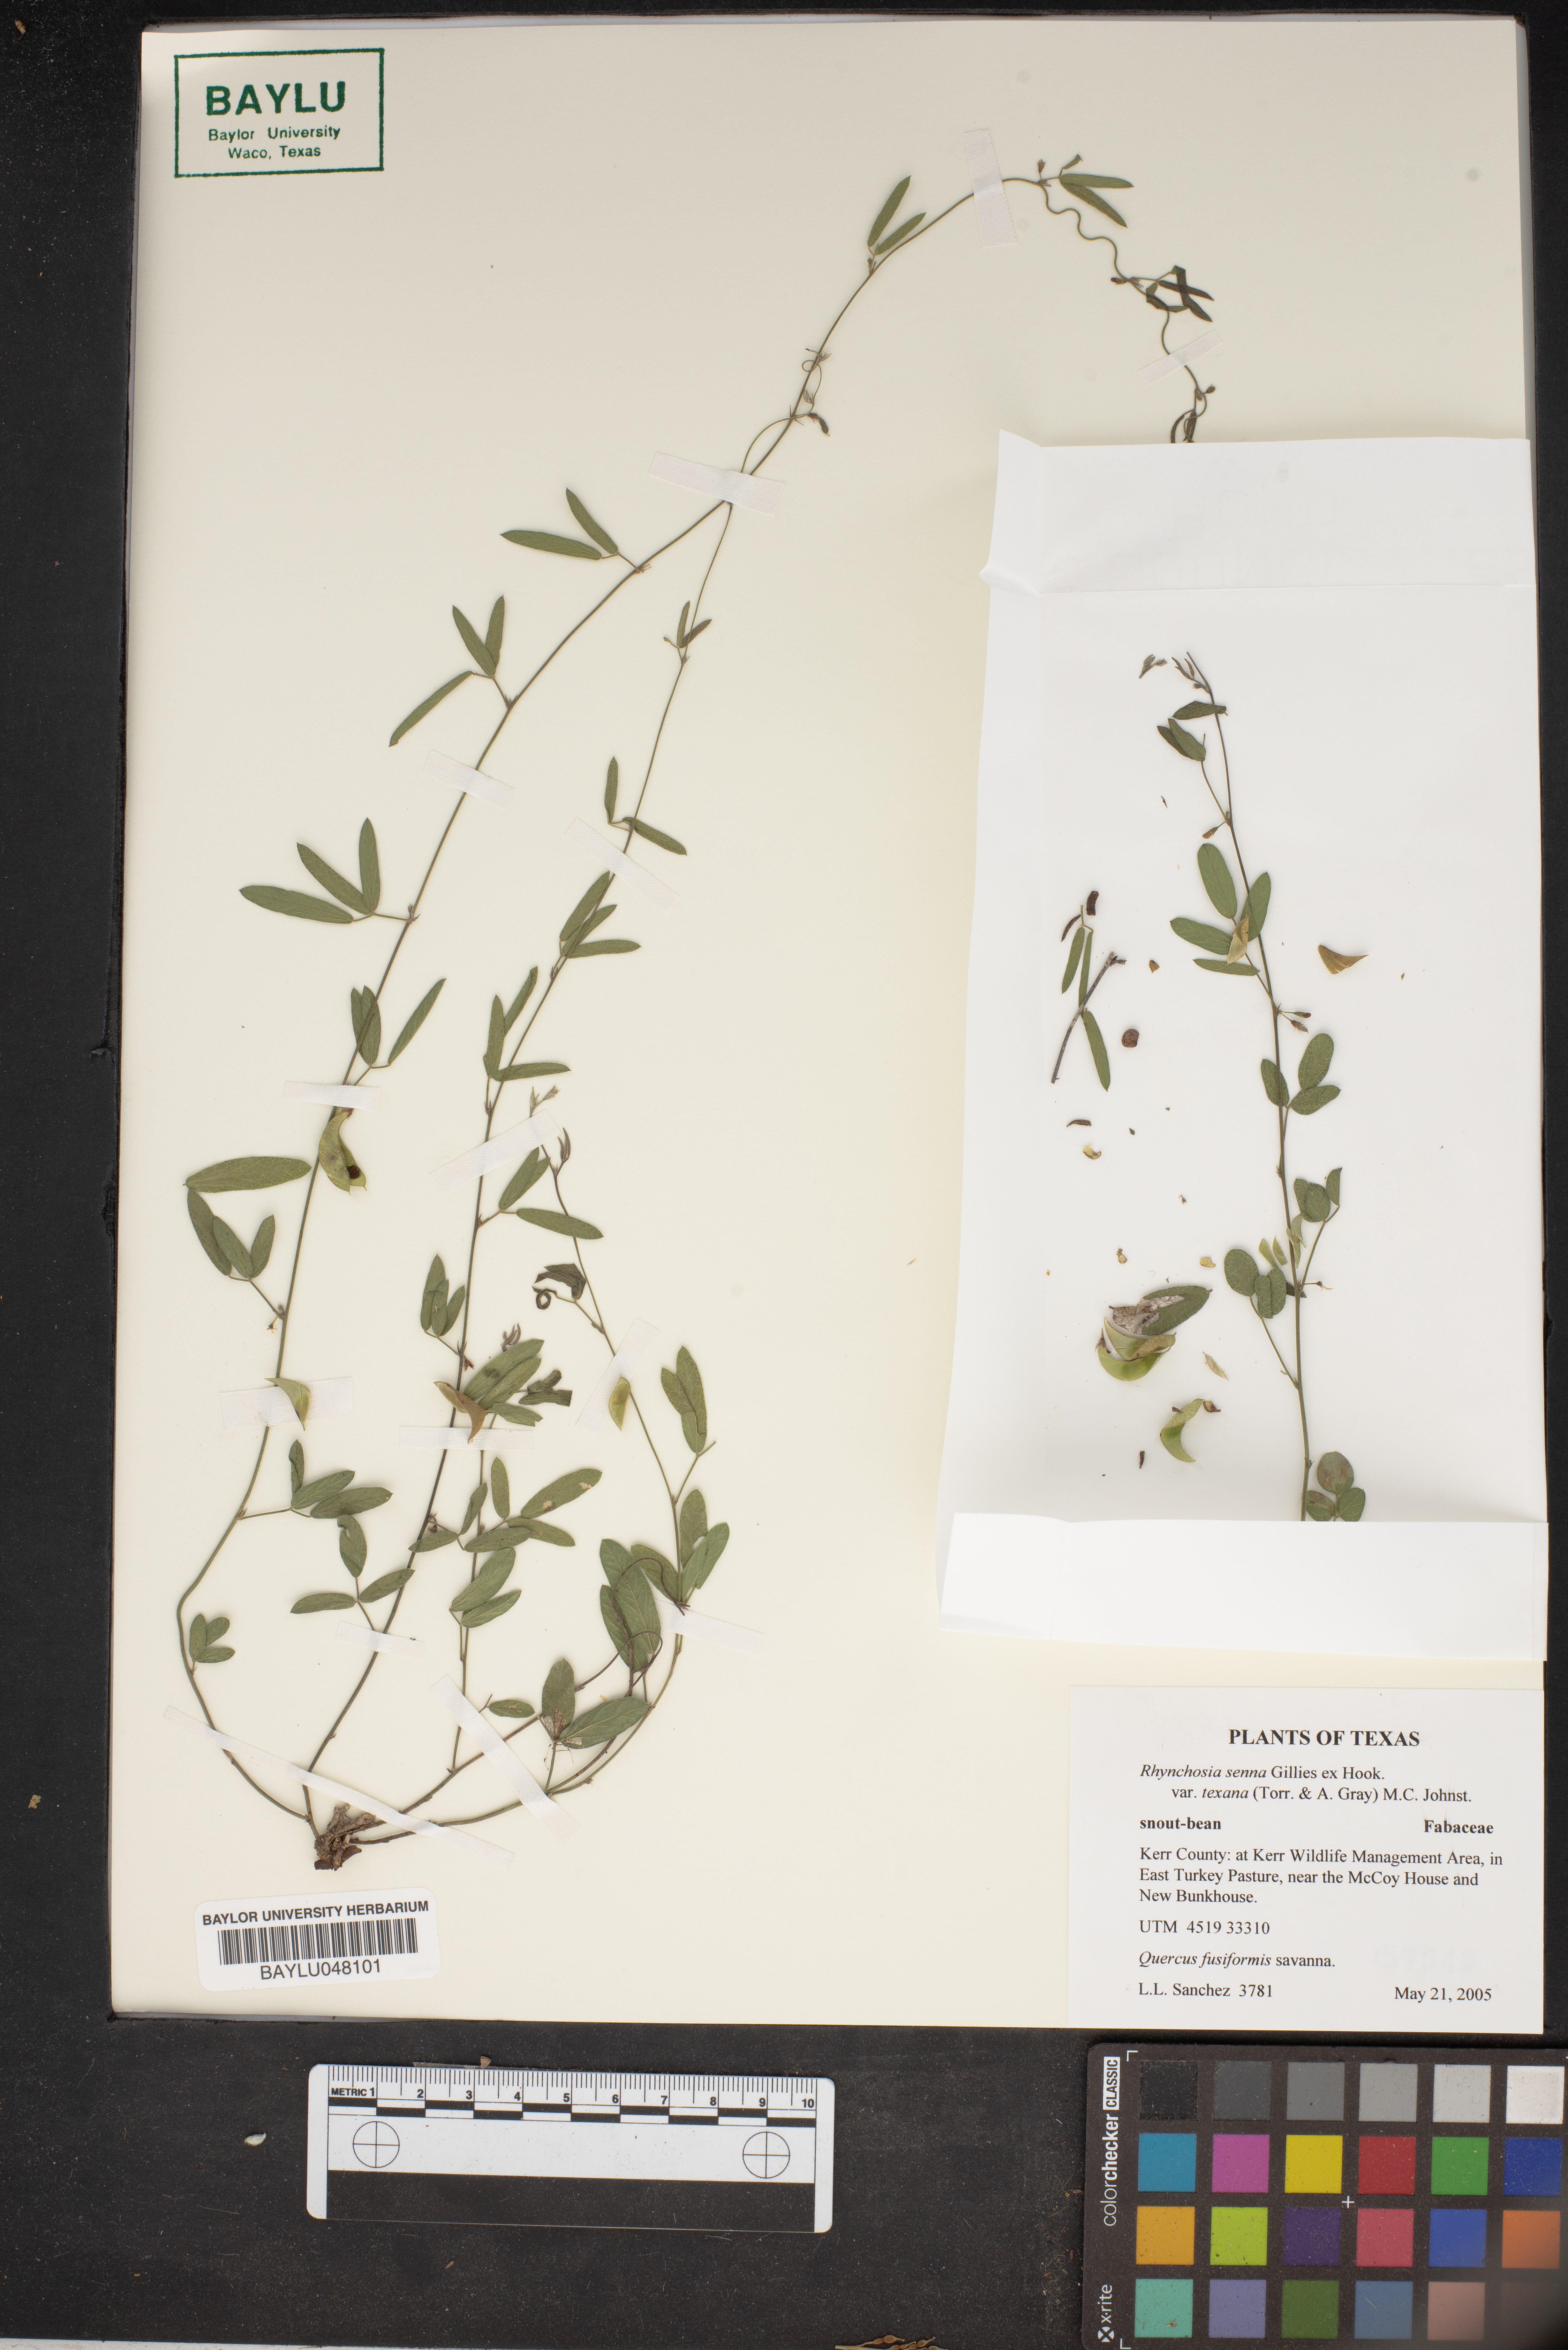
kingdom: Plantae
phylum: Tracheophyta
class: Magnoliopsida
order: Fabales
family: Fabaceae
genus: Rhynchosia
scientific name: Rhynchosia senna
